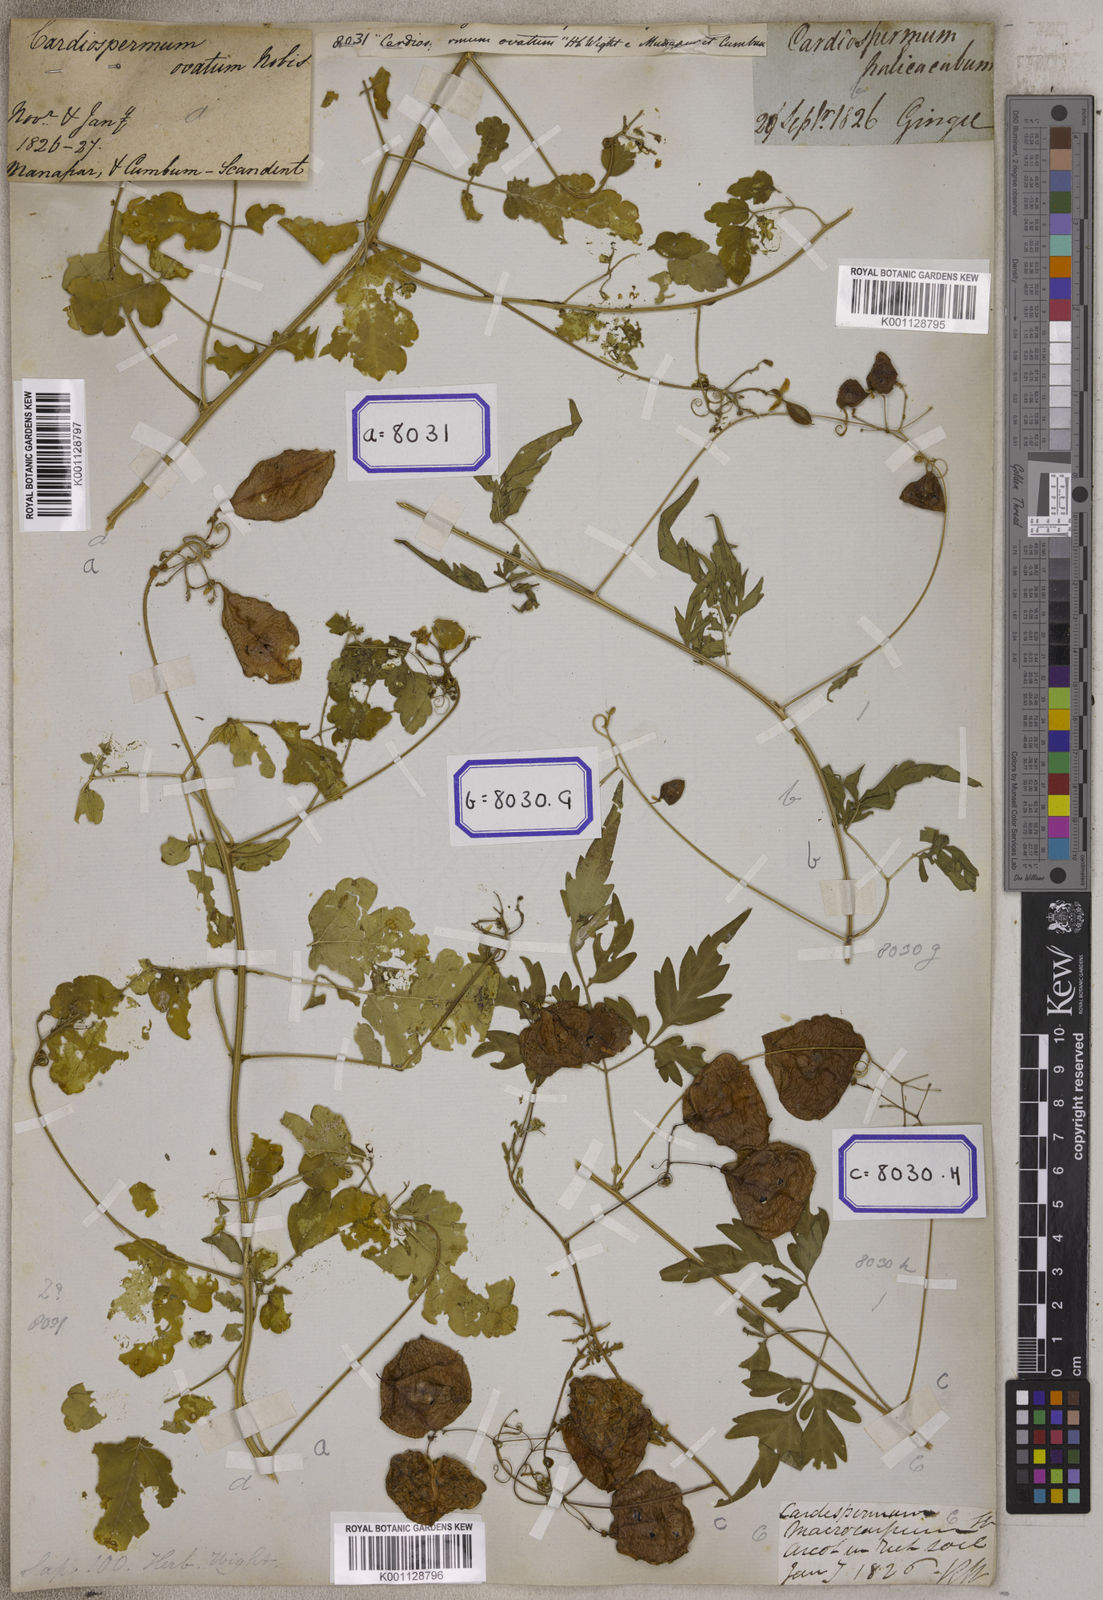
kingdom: Plantae
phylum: Tracheophyta
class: Magnoliopsida
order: Sapindales
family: Sapindaceae
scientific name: Sapindaceae
